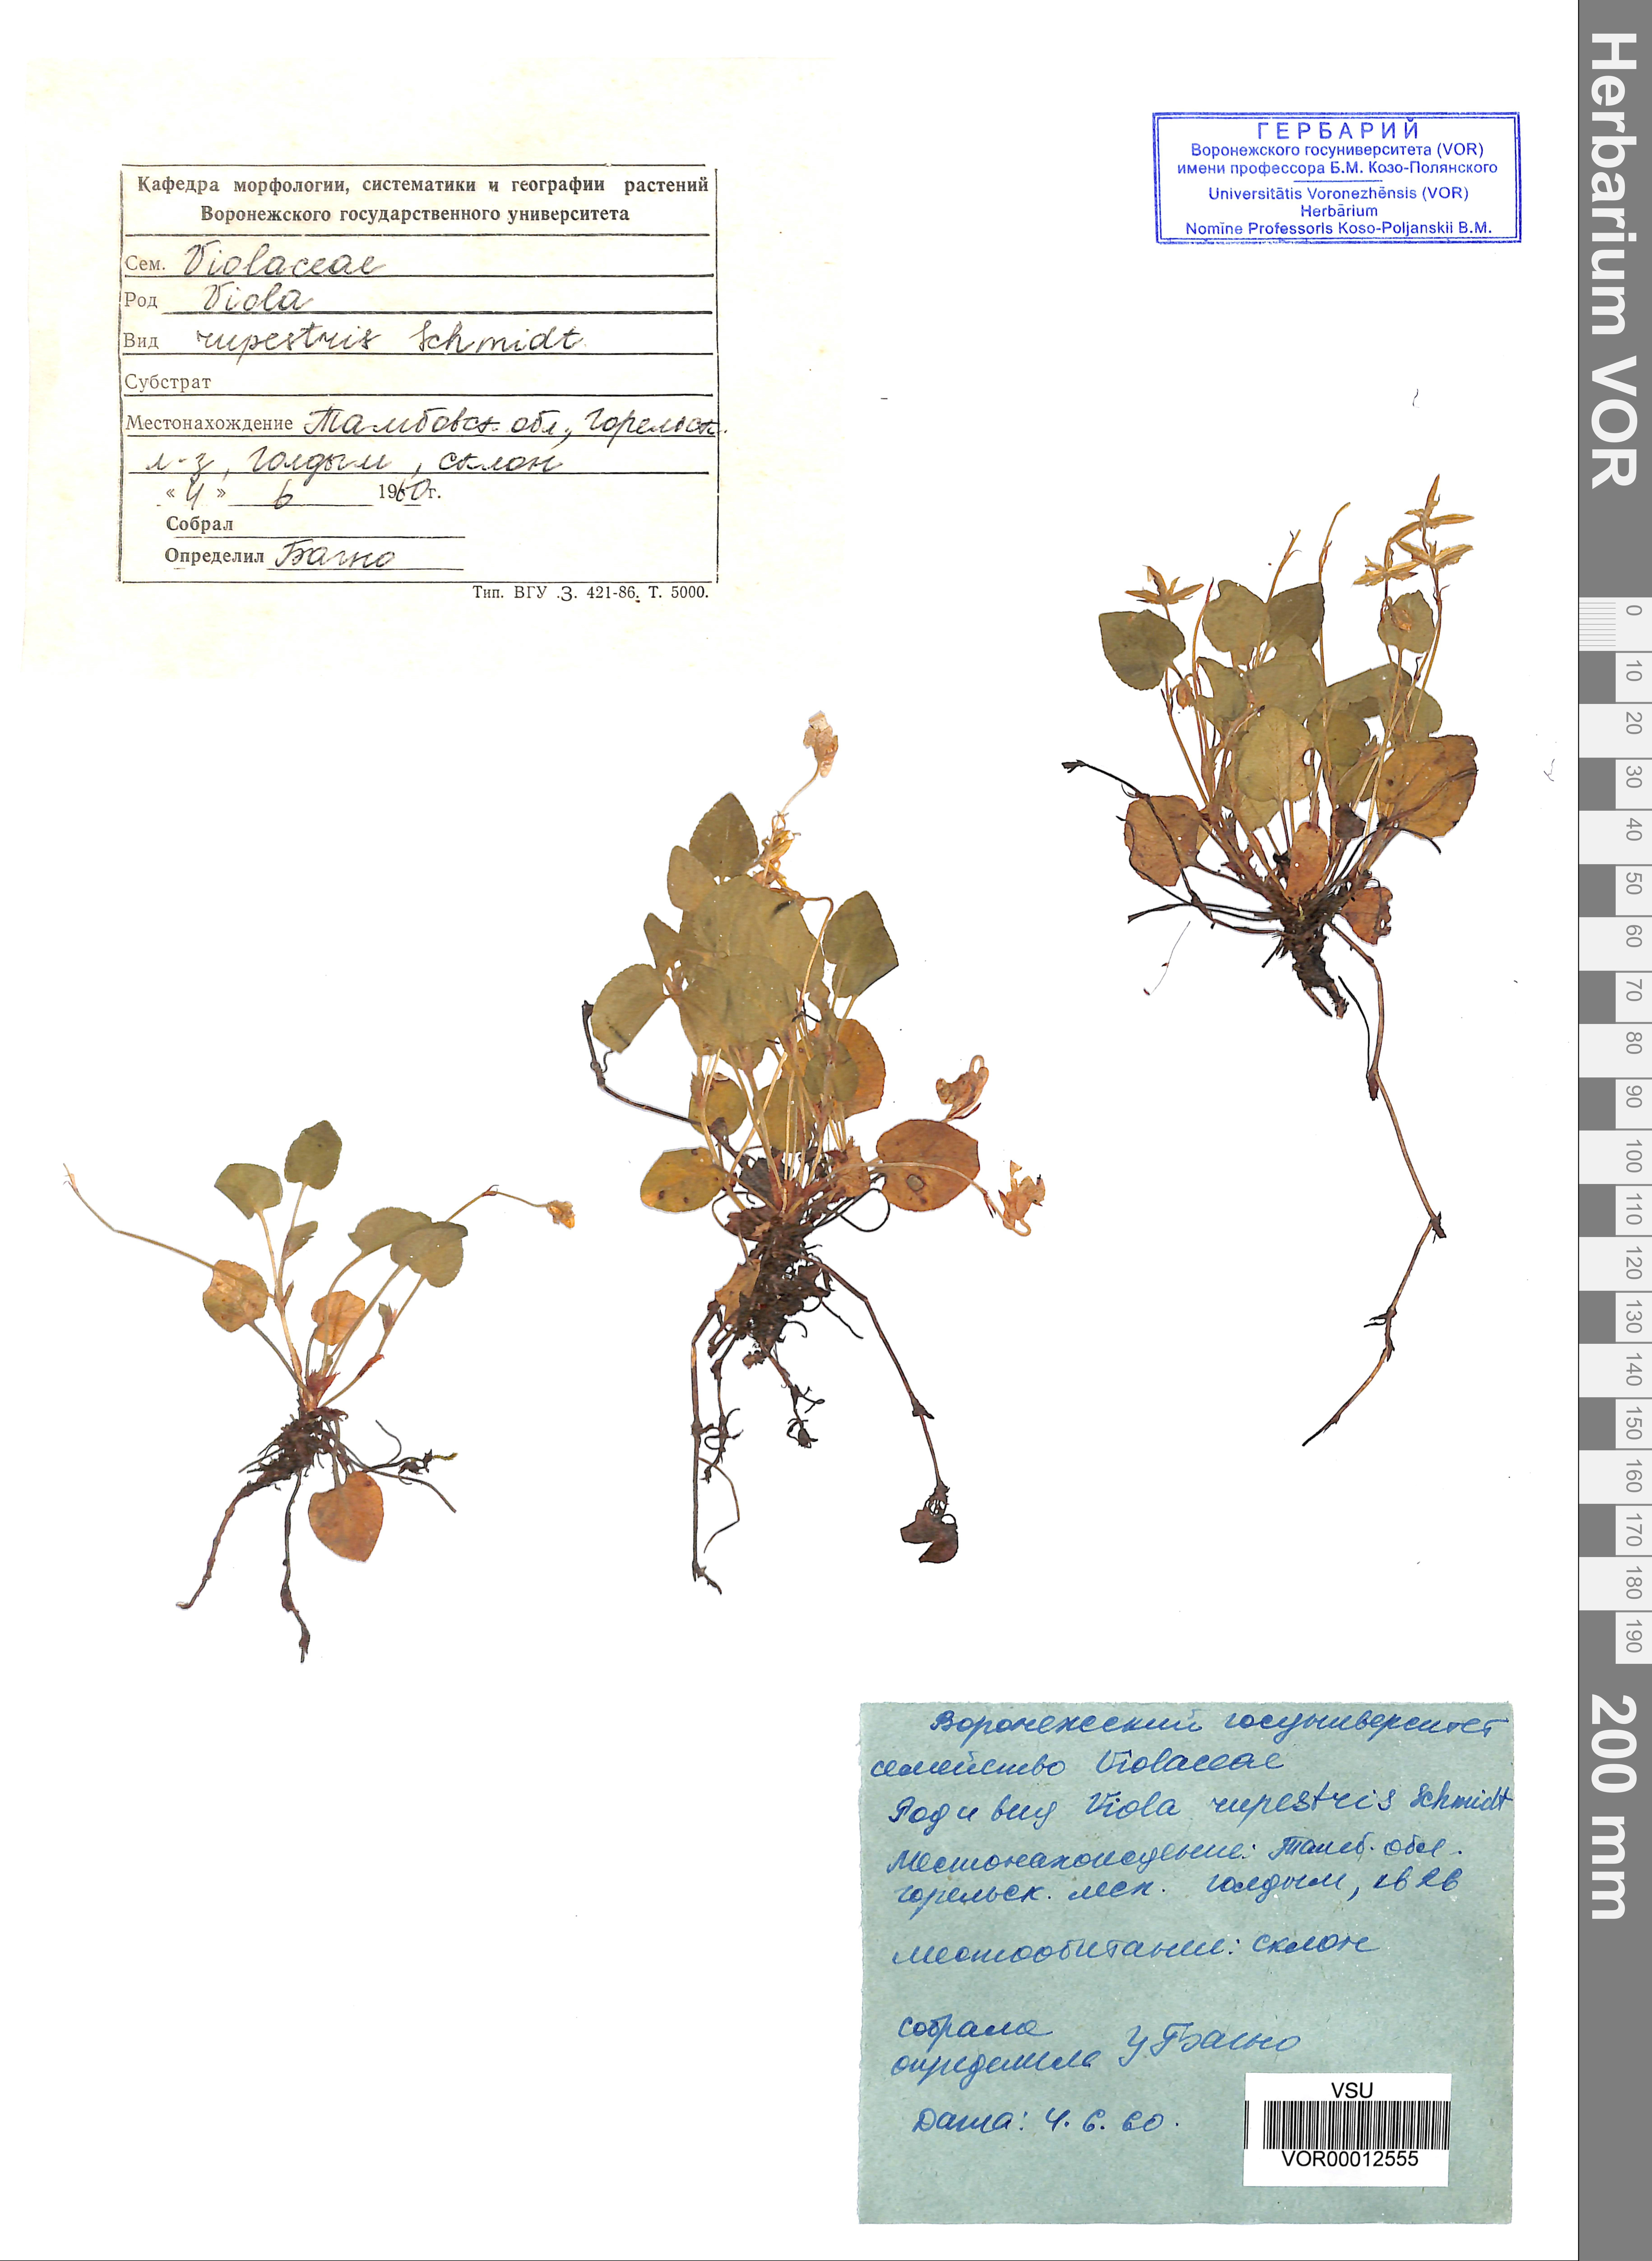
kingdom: Plantae
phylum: Tracheophyta
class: Magnoliopsida
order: Malpighiales
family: Violaceae
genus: Viola
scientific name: Viola rupestris
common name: Teesdale violet
